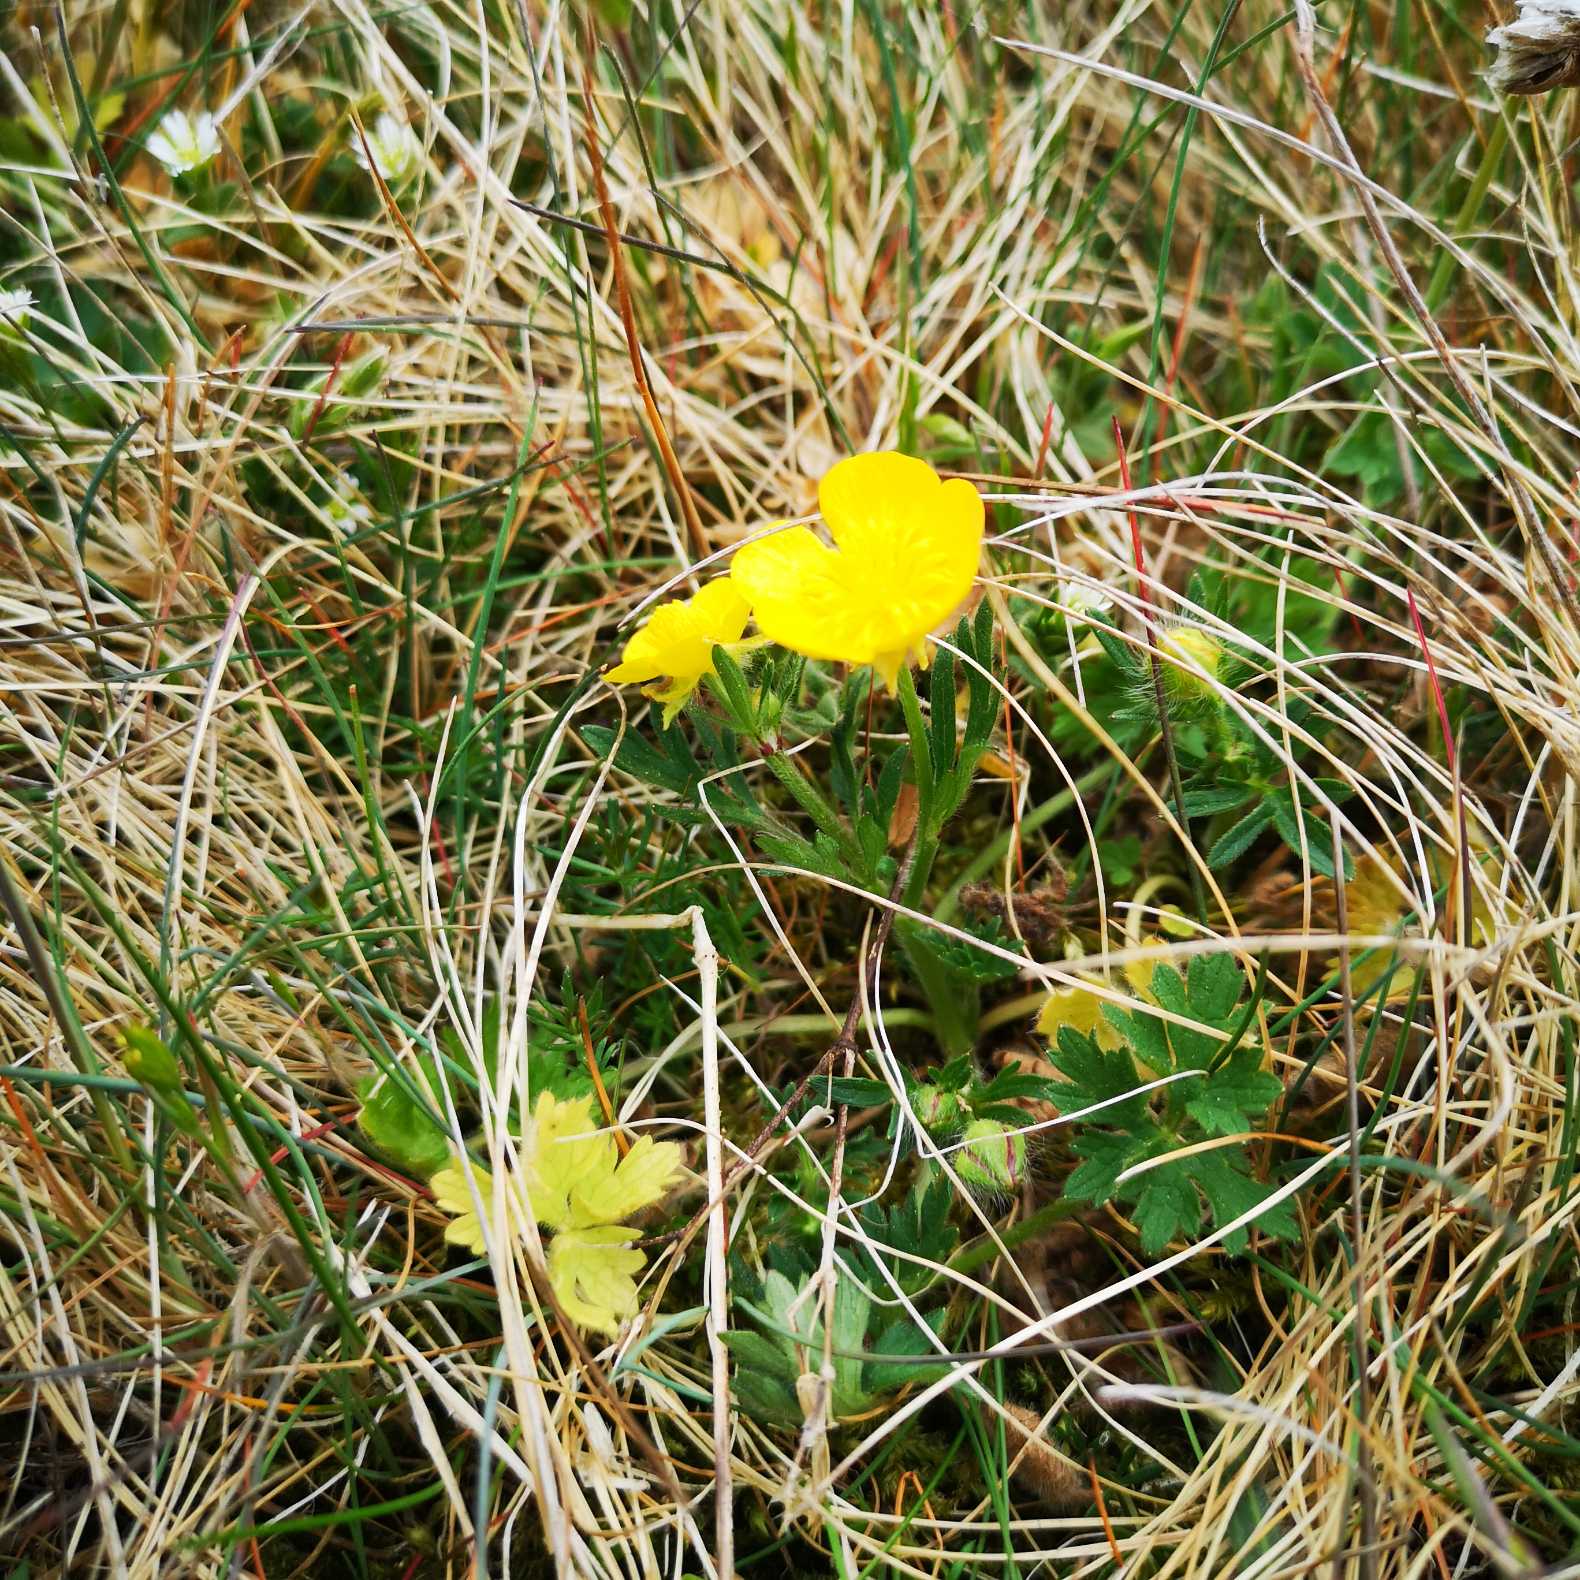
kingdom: Plantae
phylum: Tracheophyta
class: Magnoliopsida
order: Ranunculales
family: Ranunculaceae
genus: Ranunculus
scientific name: Ranunculus bulbosus
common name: Knold-ranunkel
